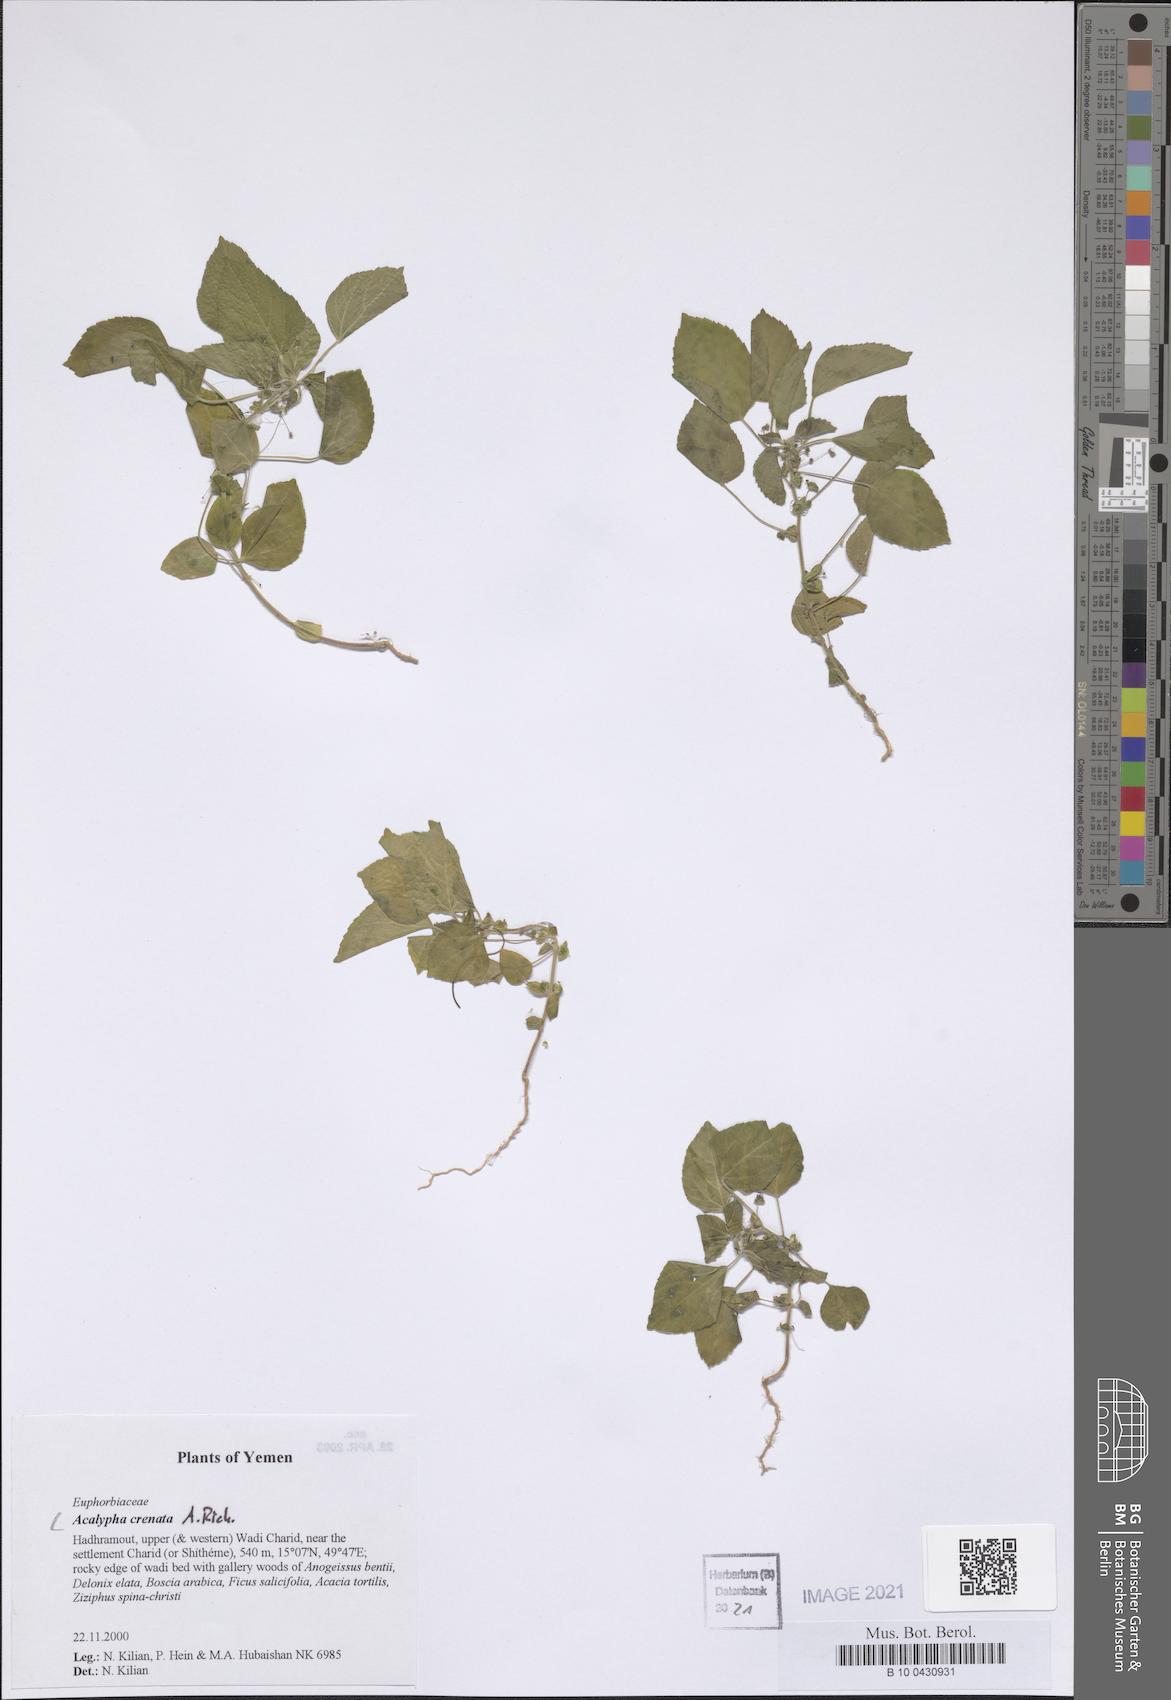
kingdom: Plantae
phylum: Tracheophyta
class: Magnoliopsida
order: Malpighiales
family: Euphorbiaceae
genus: Acalypha
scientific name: Acalypha crenata
